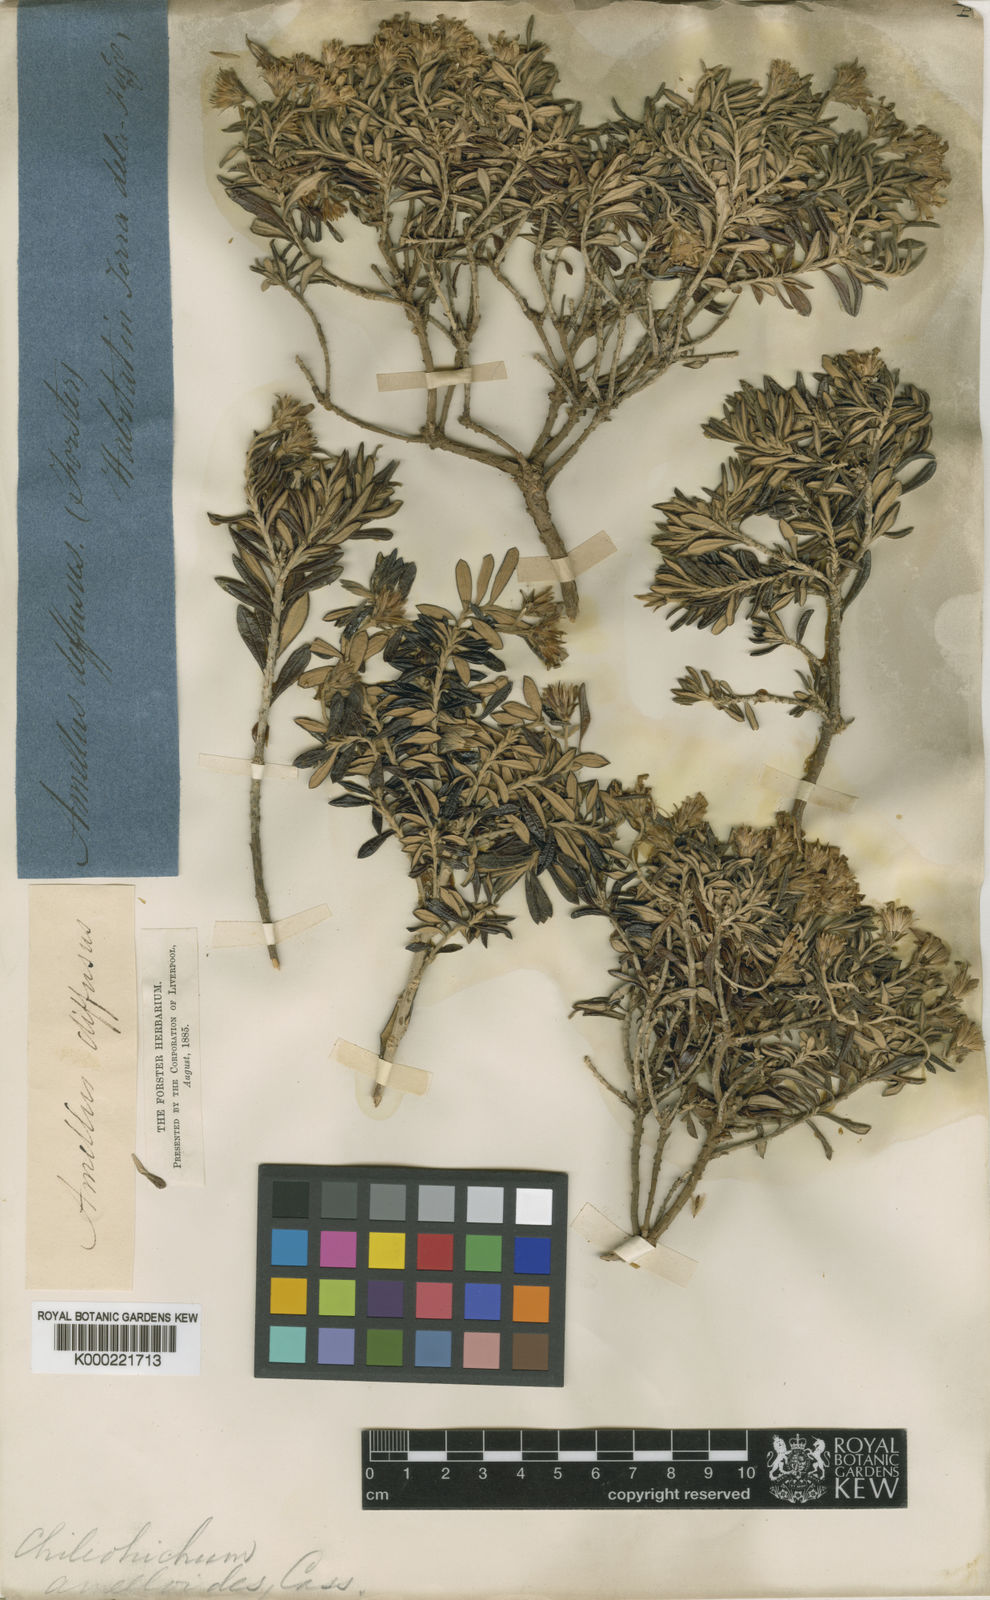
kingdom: Plantae
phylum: Tracheophyta
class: Magnoliopsida
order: Asterales
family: Asteraceae
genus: Chiliotrichum
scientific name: Chiliotrichum diffusum
